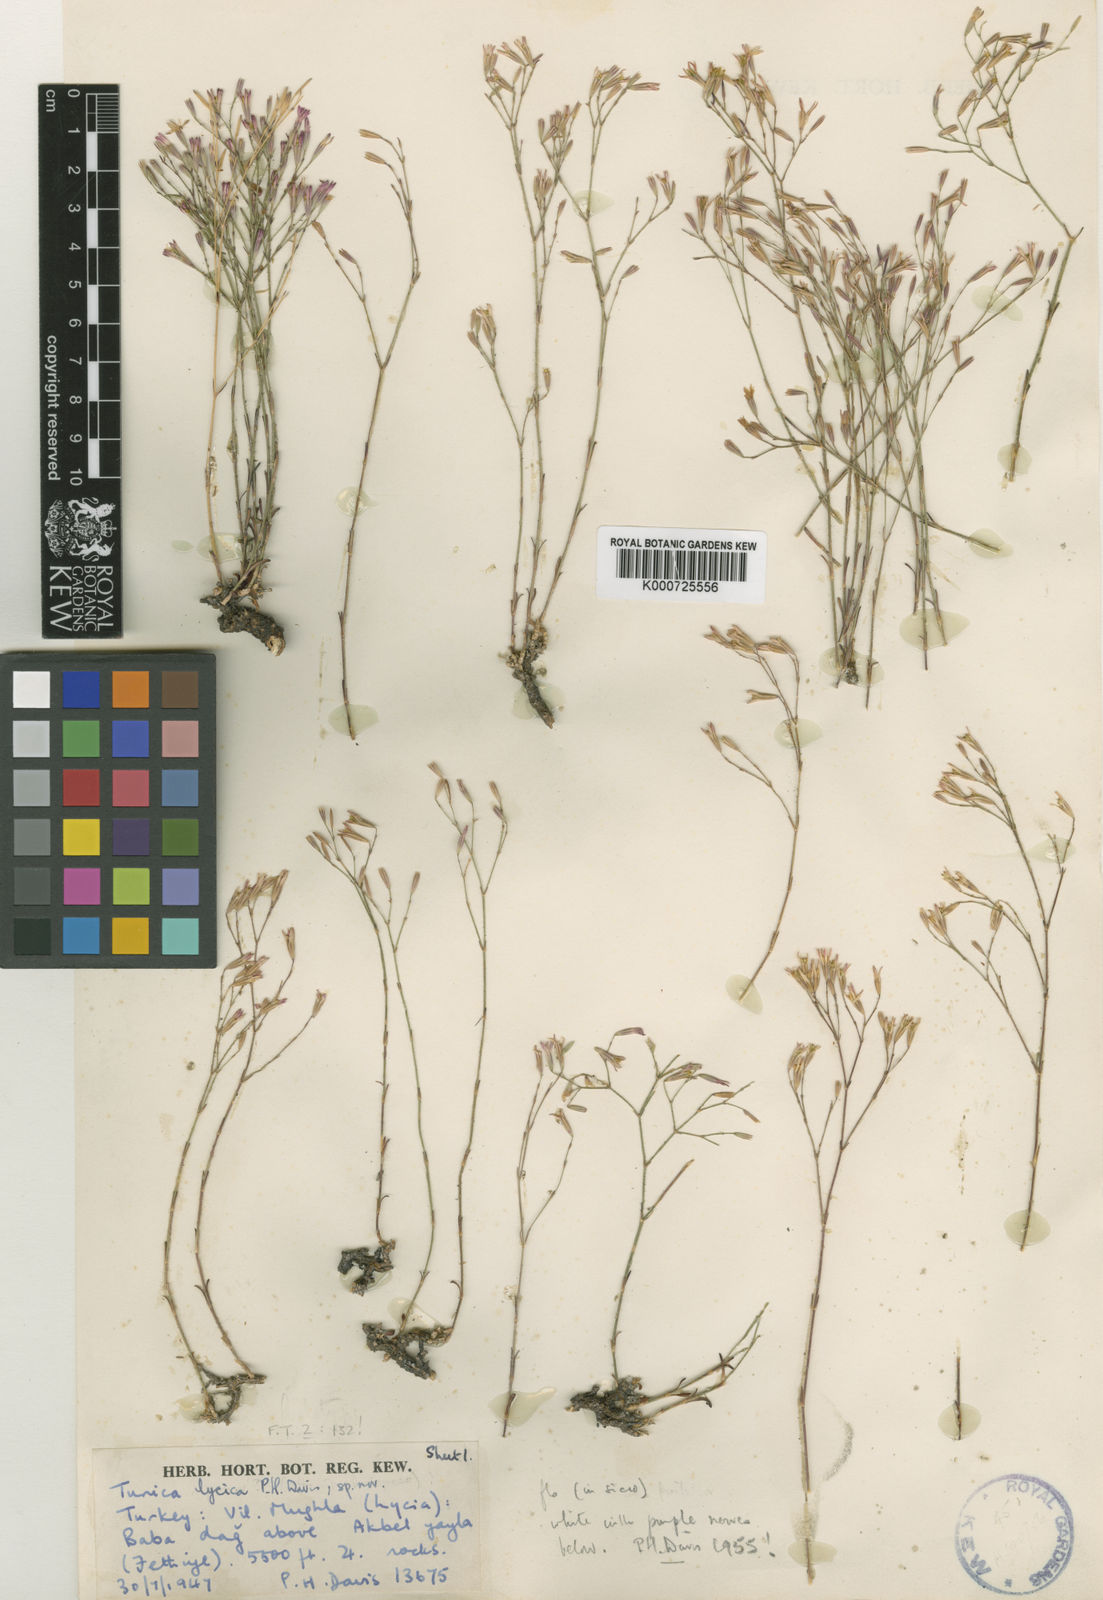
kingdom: Plantae
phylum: Tracheophyta
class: Magnoliopsida
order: Caryophyllales
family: Caryophyllaceae
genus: Petrorhagia
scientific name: Petrorhagia lycica
